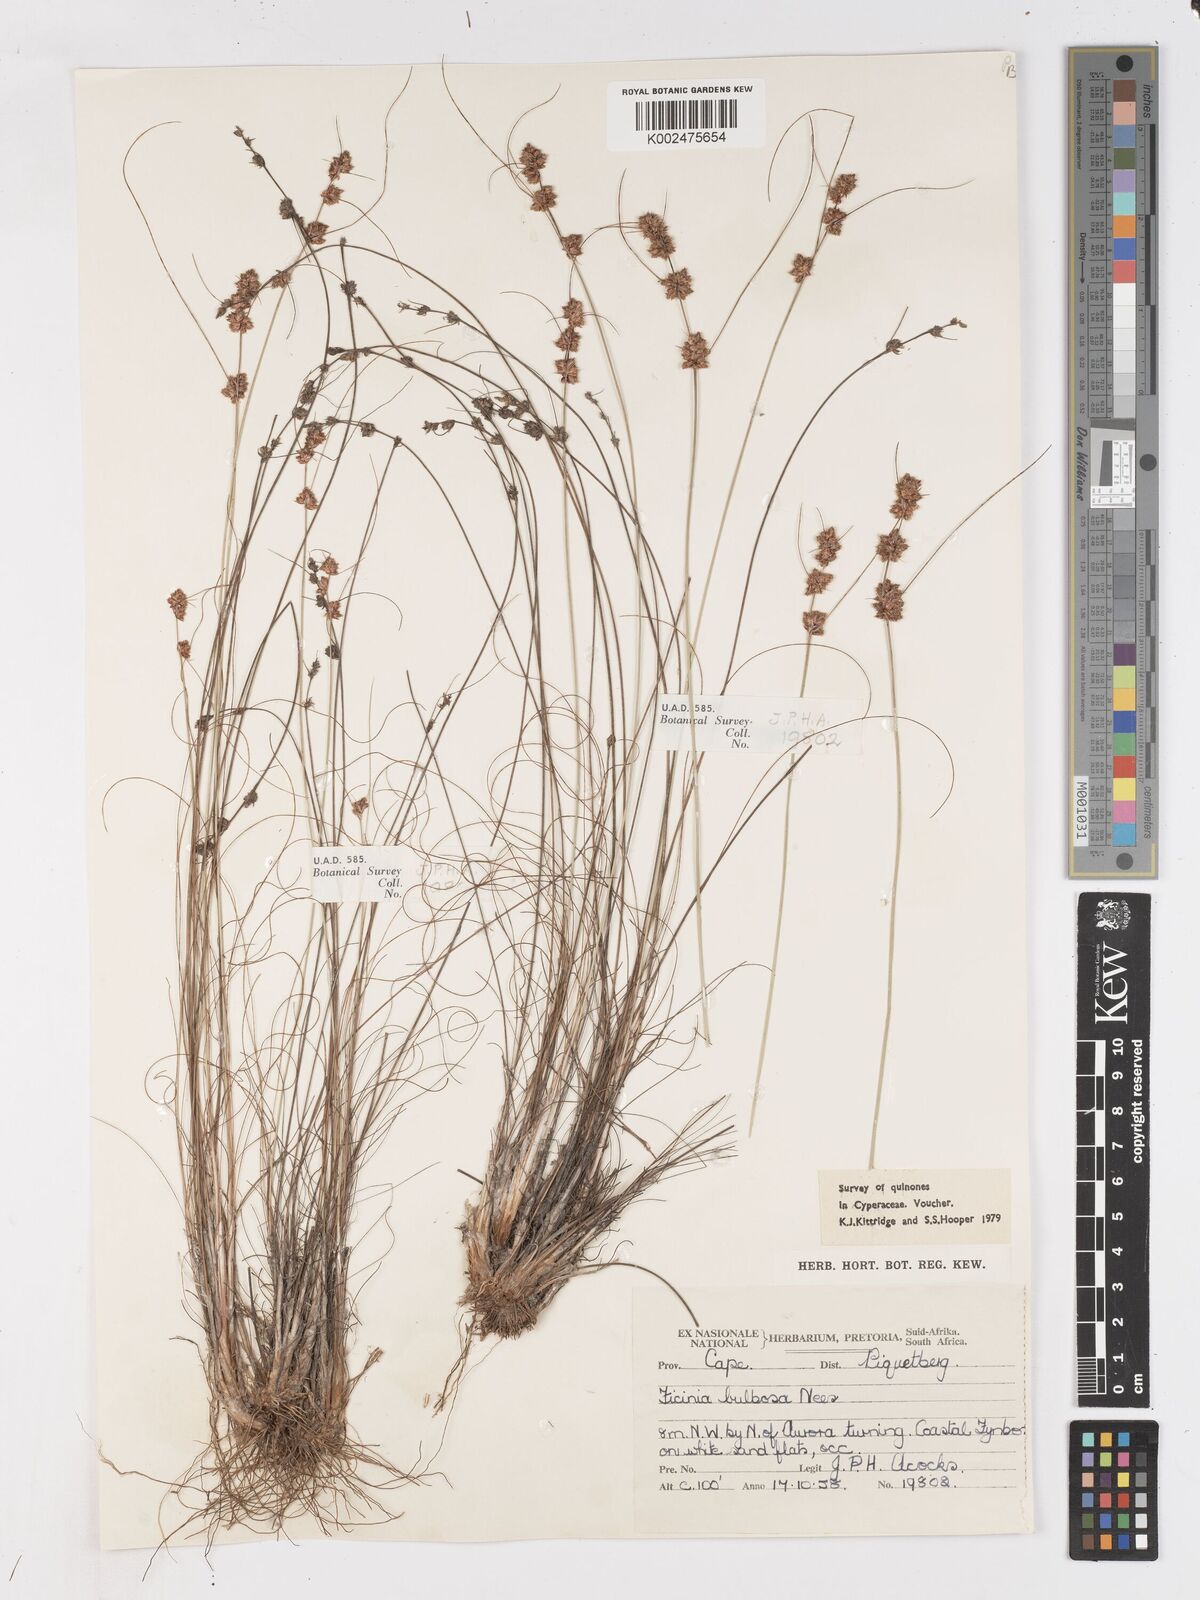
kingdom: Plantae
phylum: Tracheophyta
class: Liliopsida
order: Poales
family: Cyperaceae
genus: Ficinia
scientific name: Ficinia bulbosa
